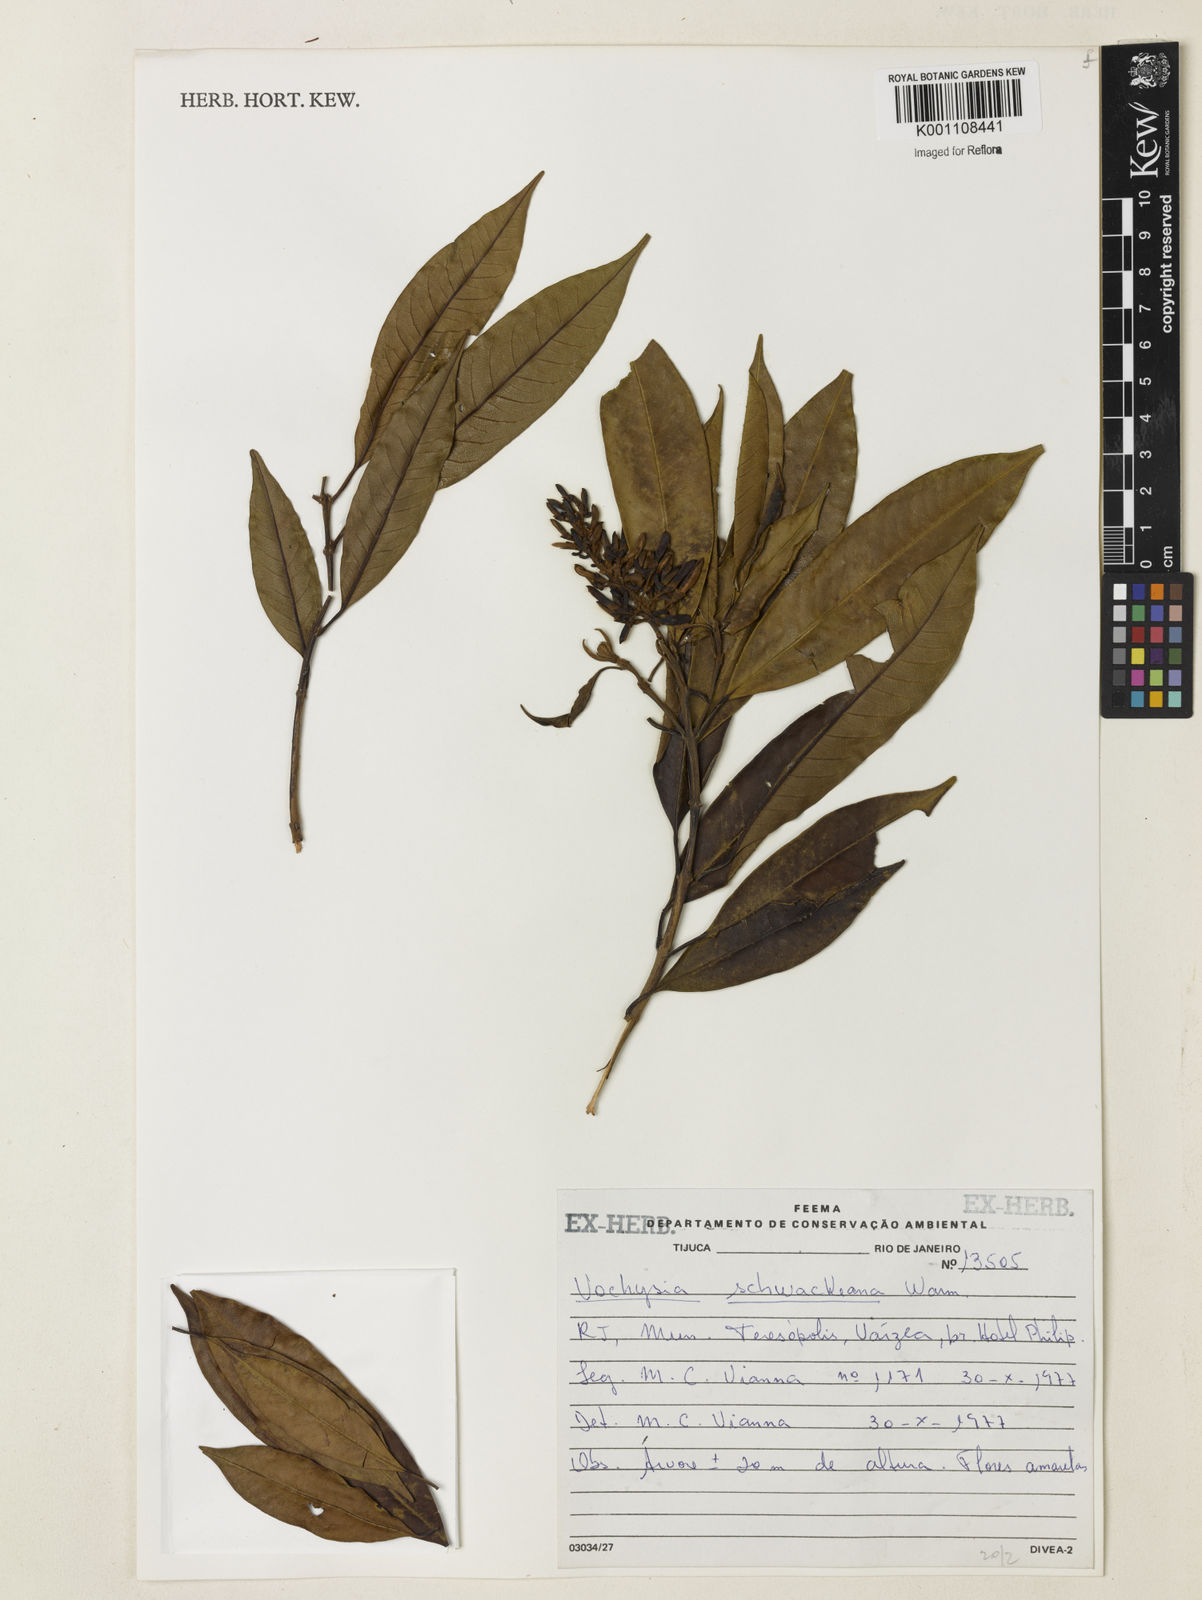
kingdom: Plantae
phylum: Tracheophyta
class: Magnoliopsida
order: Myrtales
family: Vochysiaceae
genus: Vochysia
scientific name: Vochysia schwackeana
